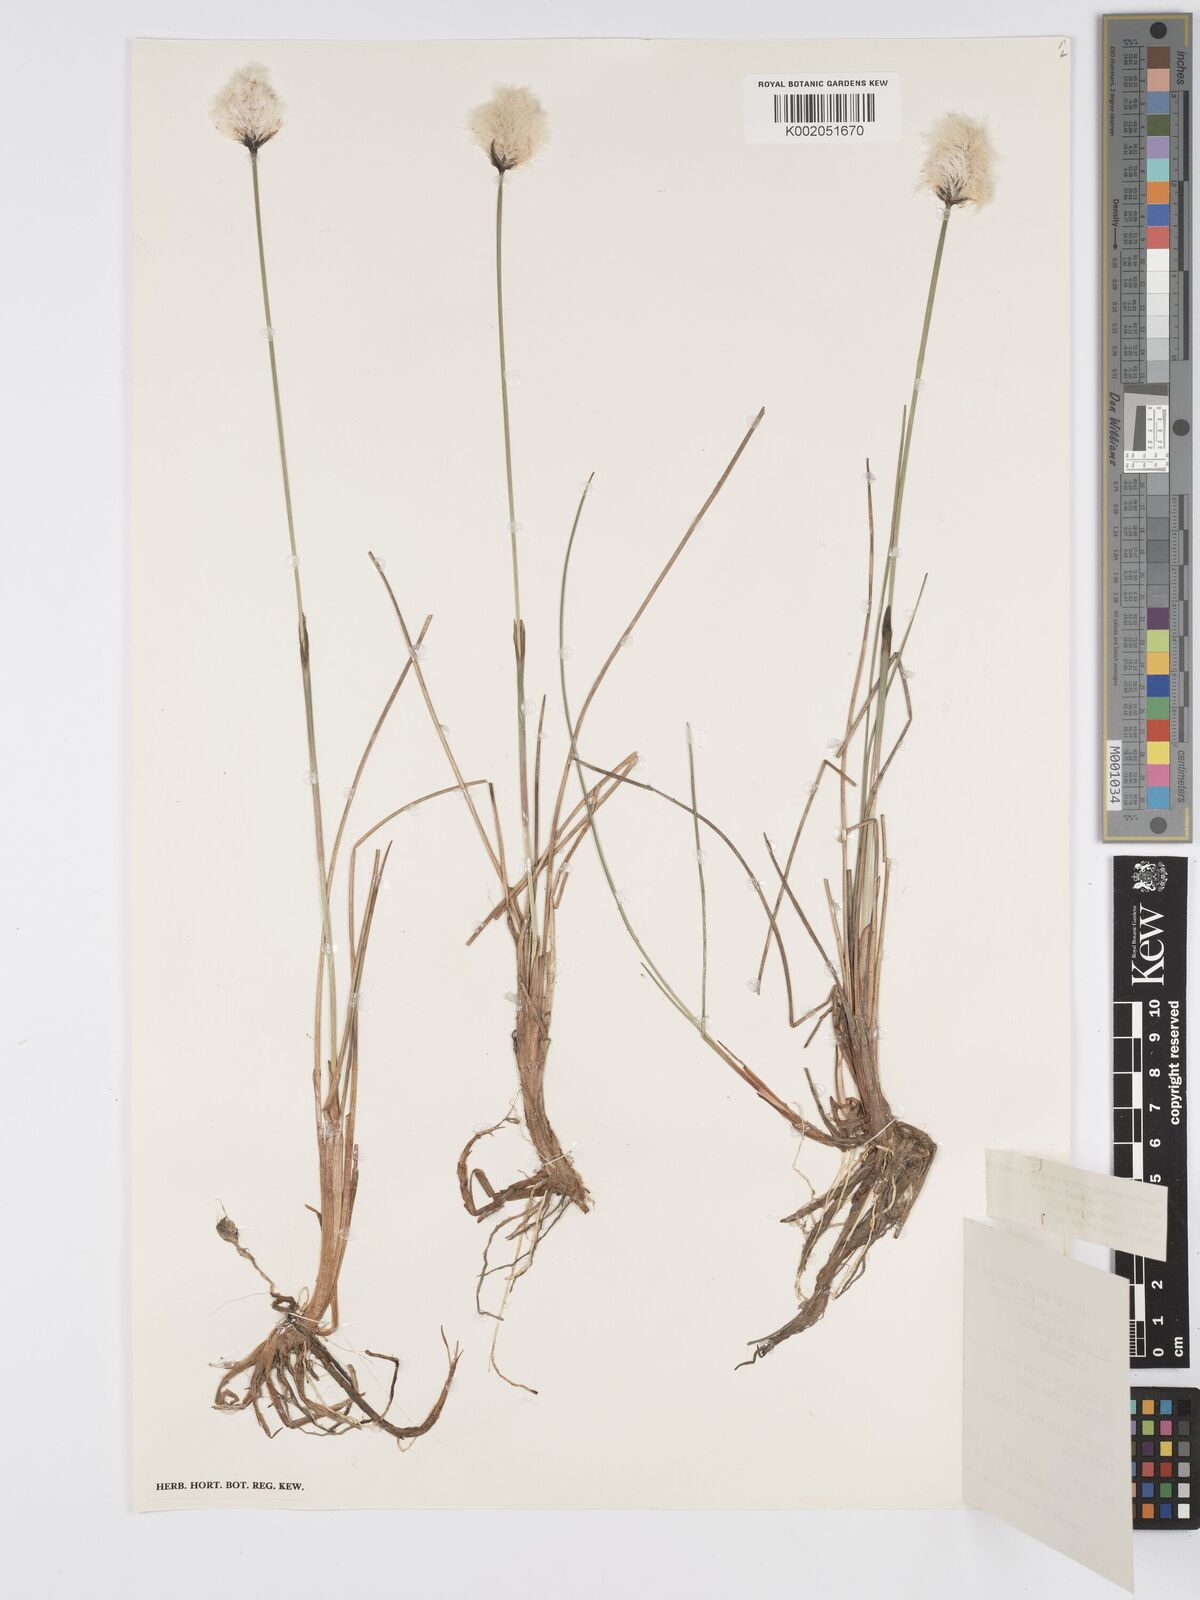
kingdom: Plantae
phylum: Tracheophyta
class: Liliopsida
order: Poales
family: Cyperaceae
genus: Eriophorum
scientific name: Eriophorum chamissonis
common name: Chamisso's cottongrass
